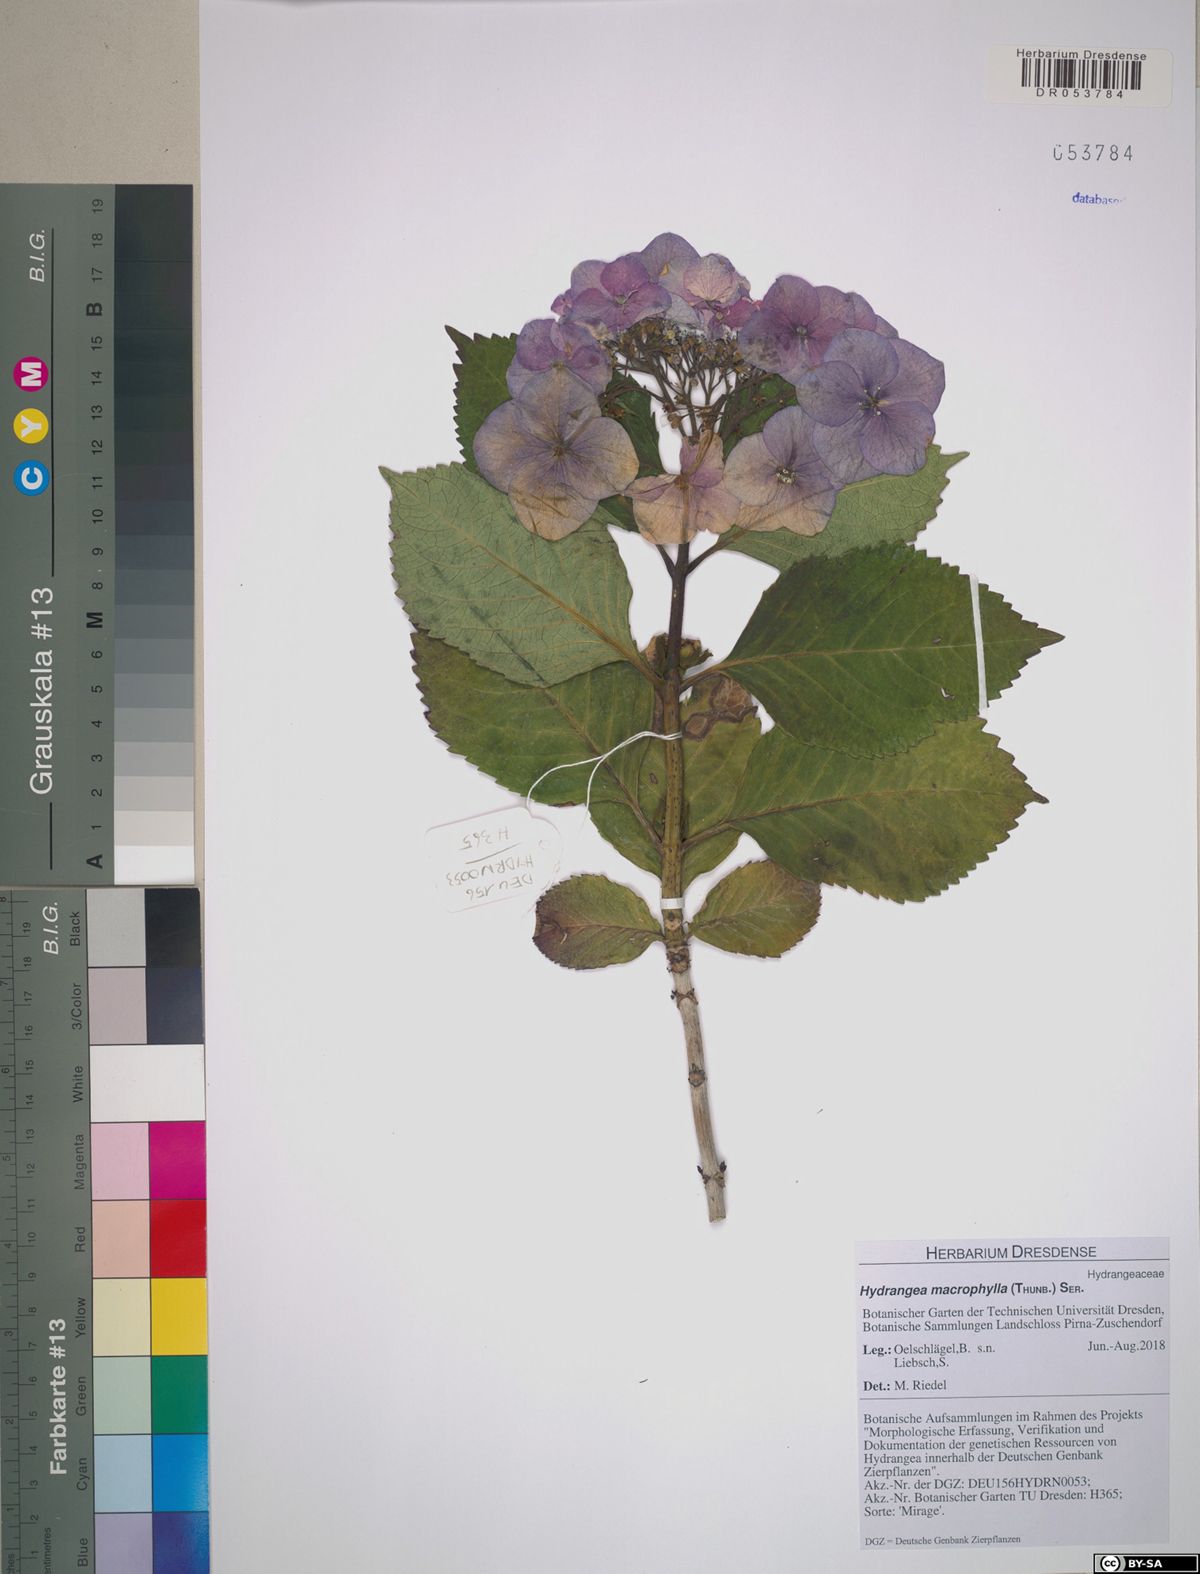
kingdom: Plantae
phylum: Tracheophyta
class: Magnoliopsida
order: Cornales
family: Hydrangeaceae
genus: Hydrangea
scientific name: Hydrangea macrophylla
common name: Hydrangea
